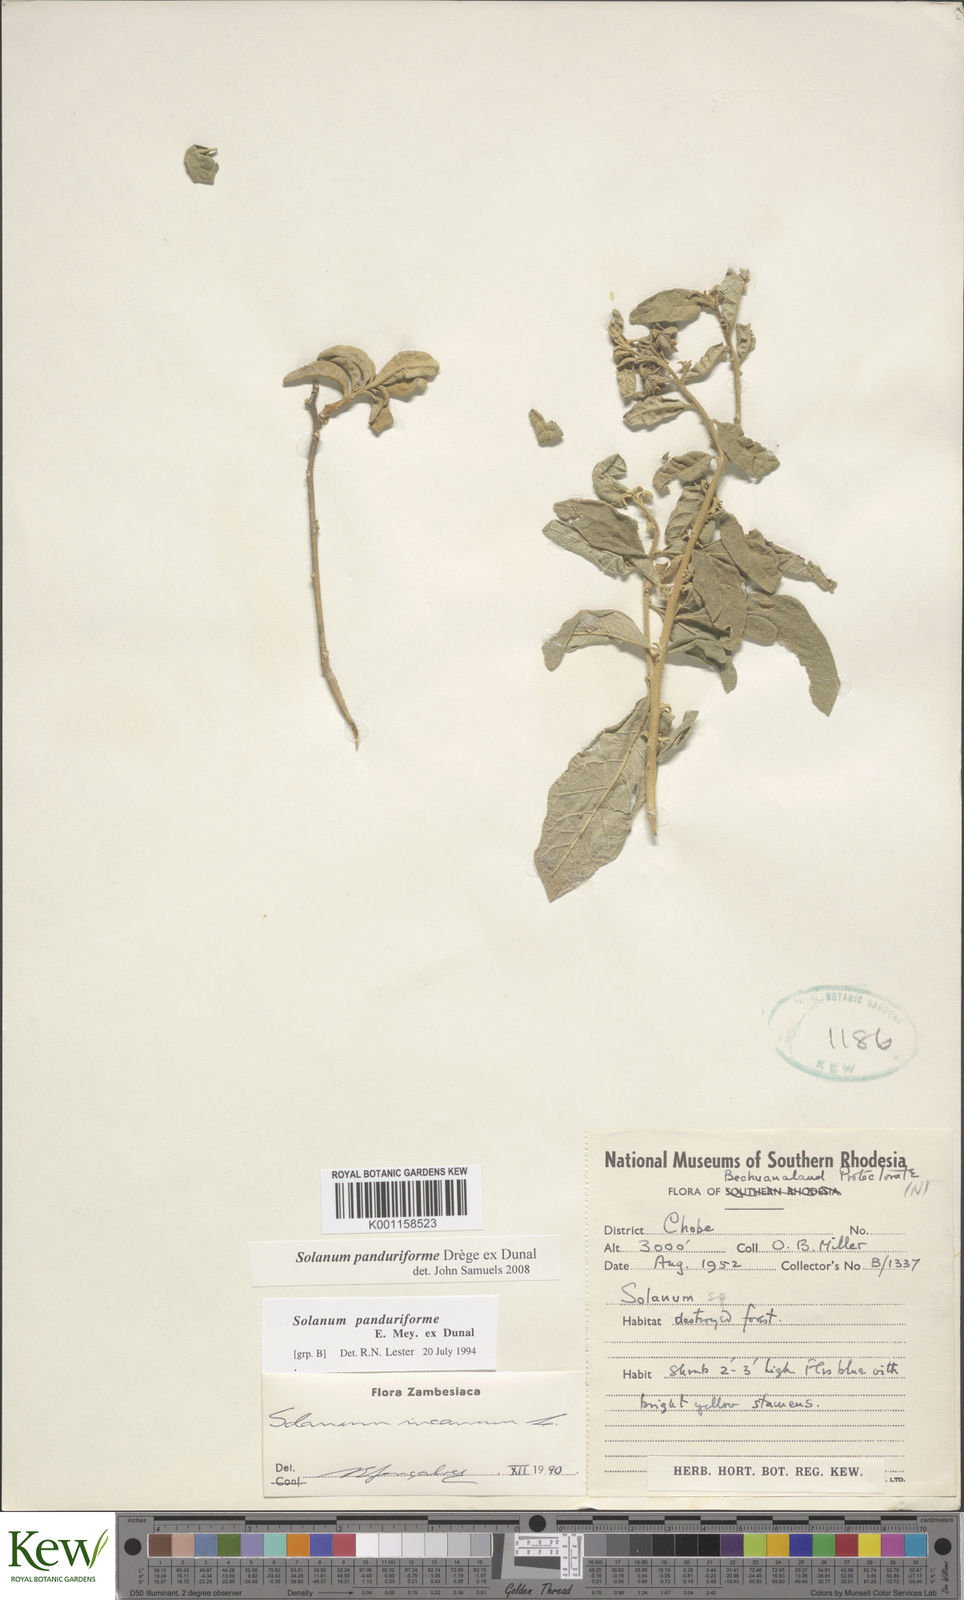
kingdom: Plantae
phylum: Tracheophyta
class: Magnoliopsida
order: Solanales
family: Solanaceae
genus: Solanum
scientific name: Solanum campylacanthum
